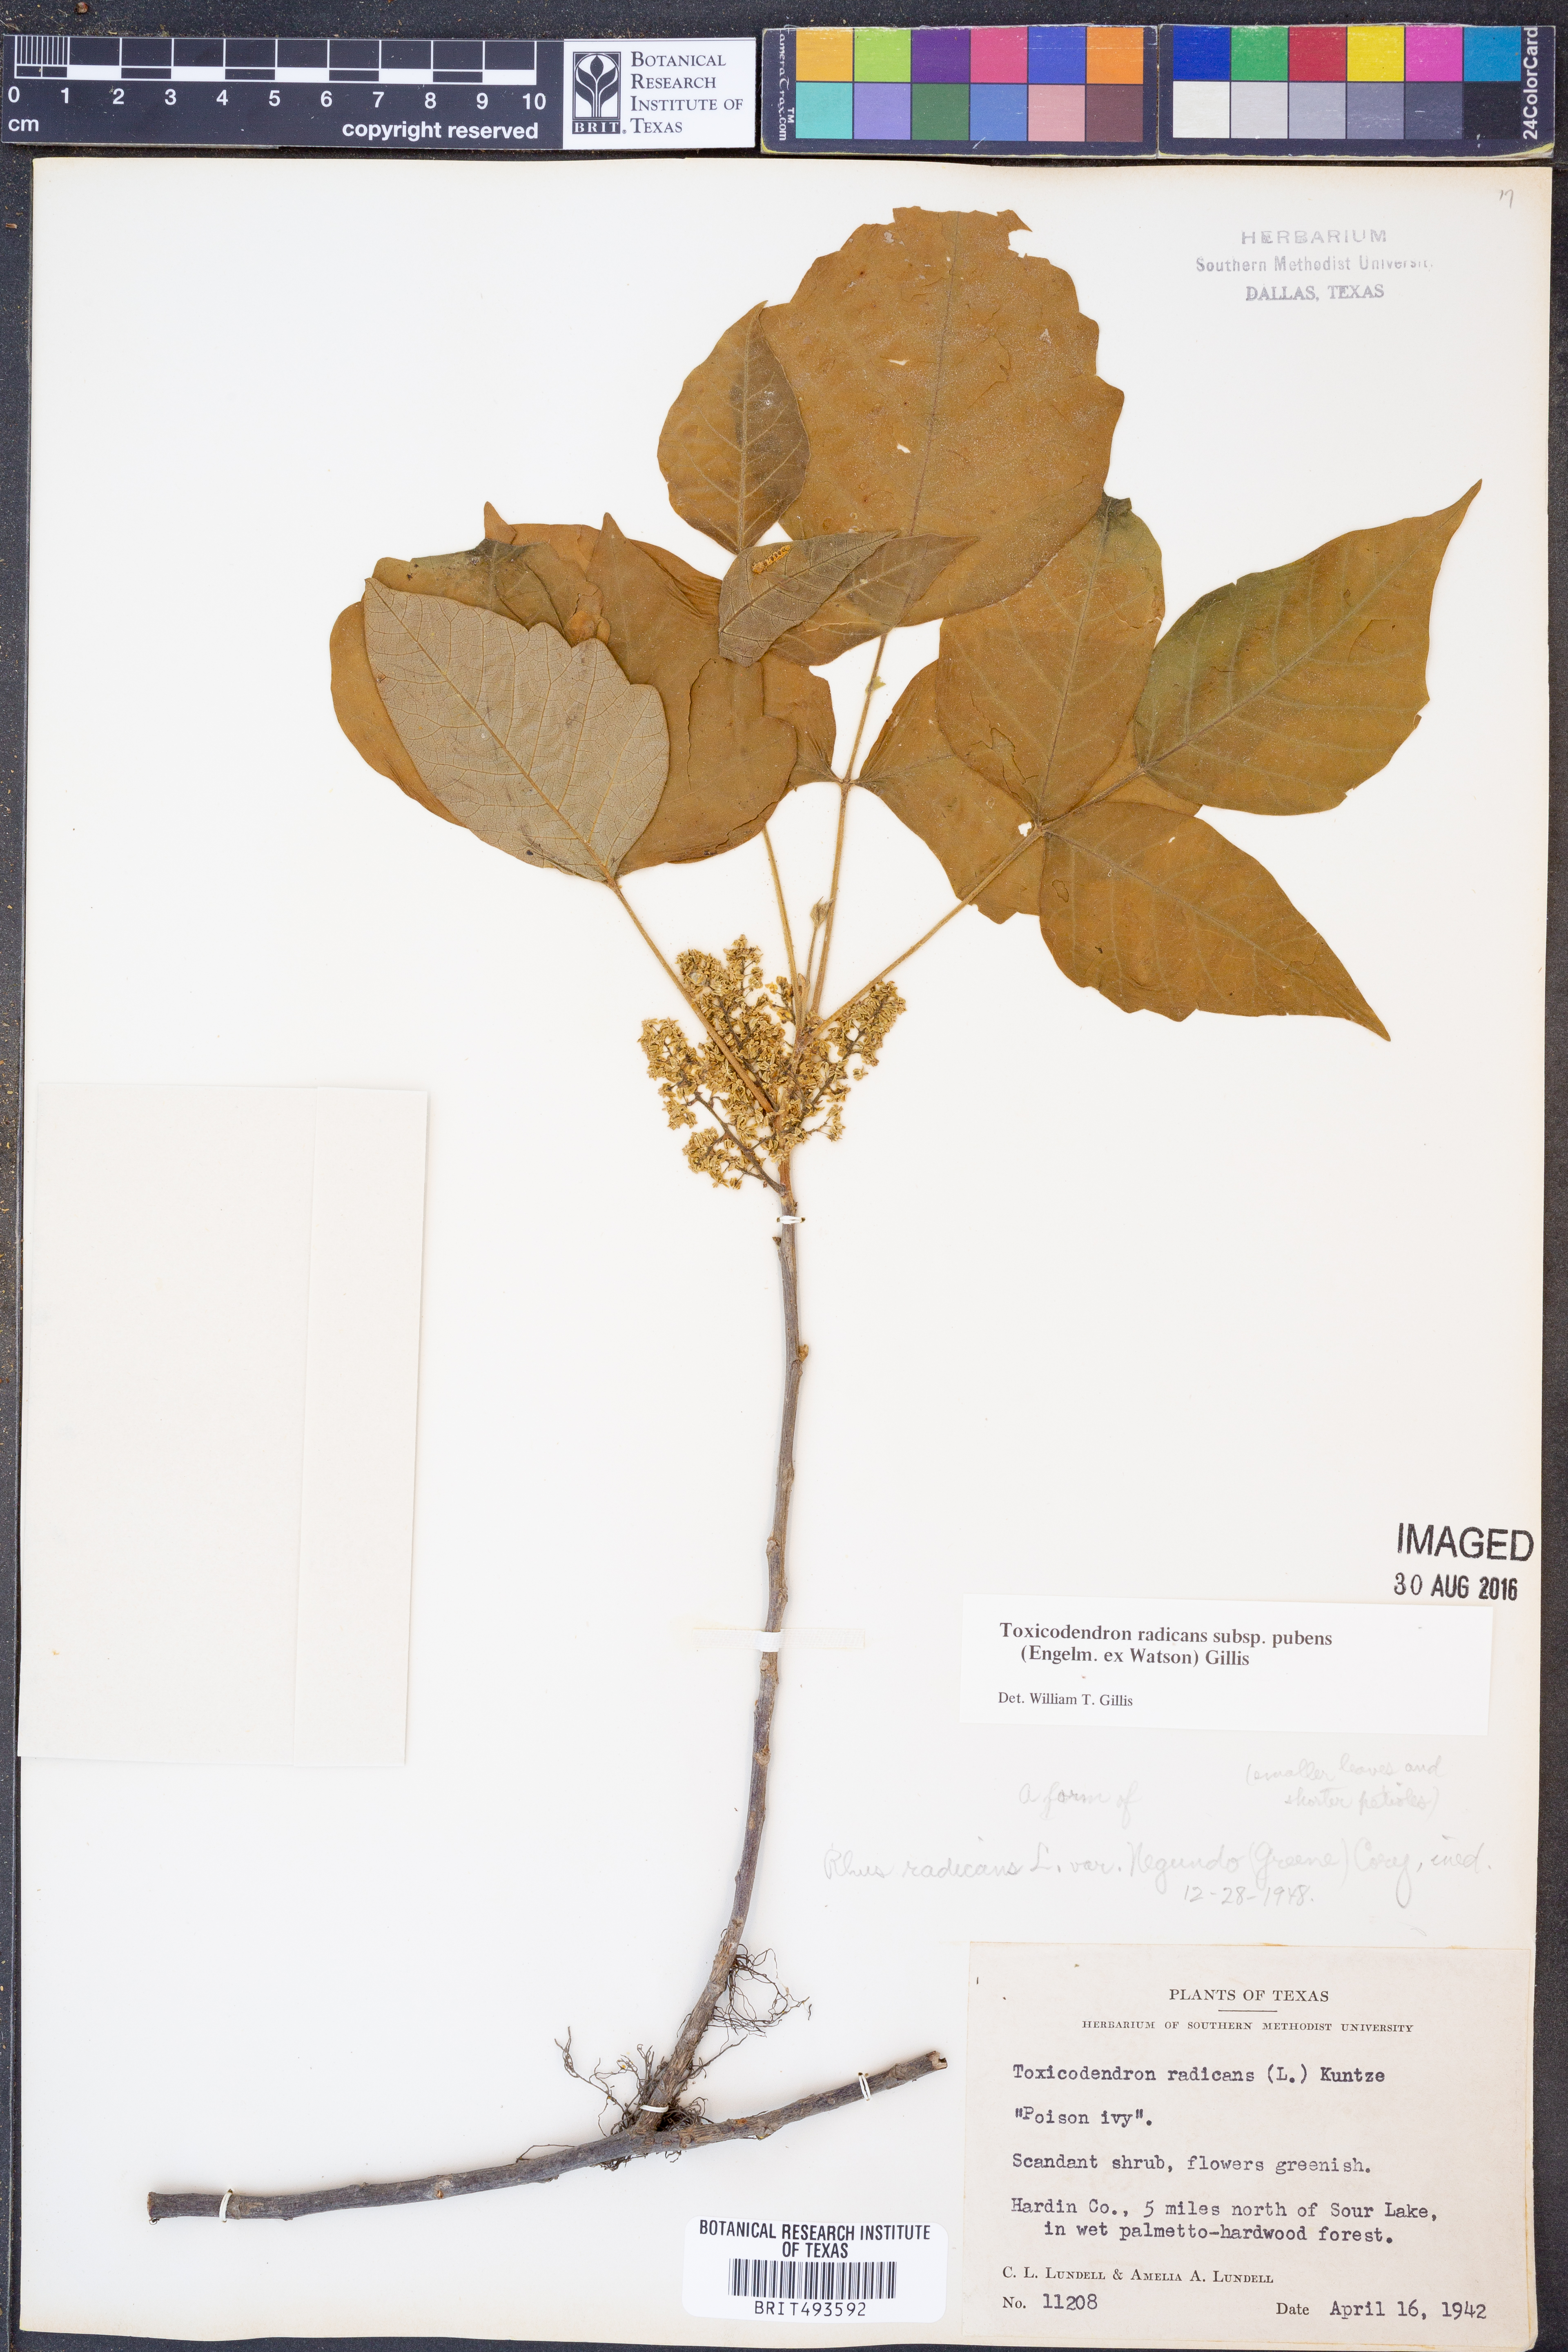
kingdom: Plantae
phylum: Tracheophyta
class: Magnoliopsida
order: Sapindales
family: Anacardiaceae
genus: Toxicodendron
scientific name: Toxicodendron radicans
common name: Poison ivy
